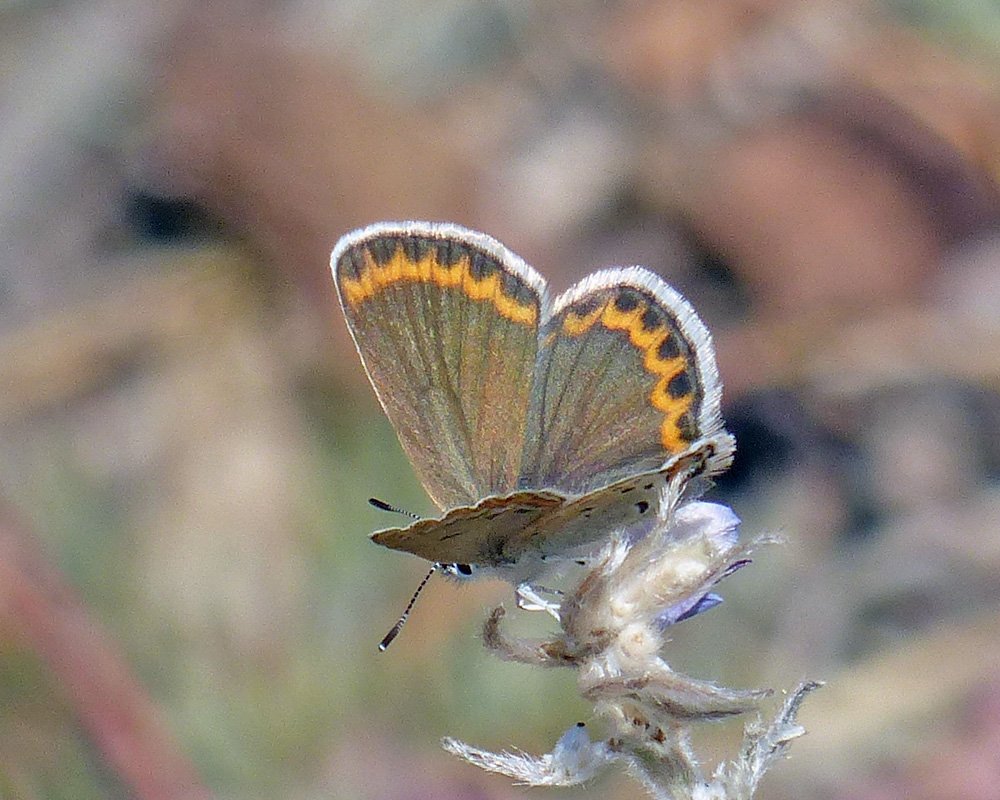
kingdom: Animalia
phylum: Arthropoda
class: Insecta
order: Lepidoptera
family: Lycaenidae
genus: Lycaeides
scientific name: Lycaeides idas
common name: Northern Blue
